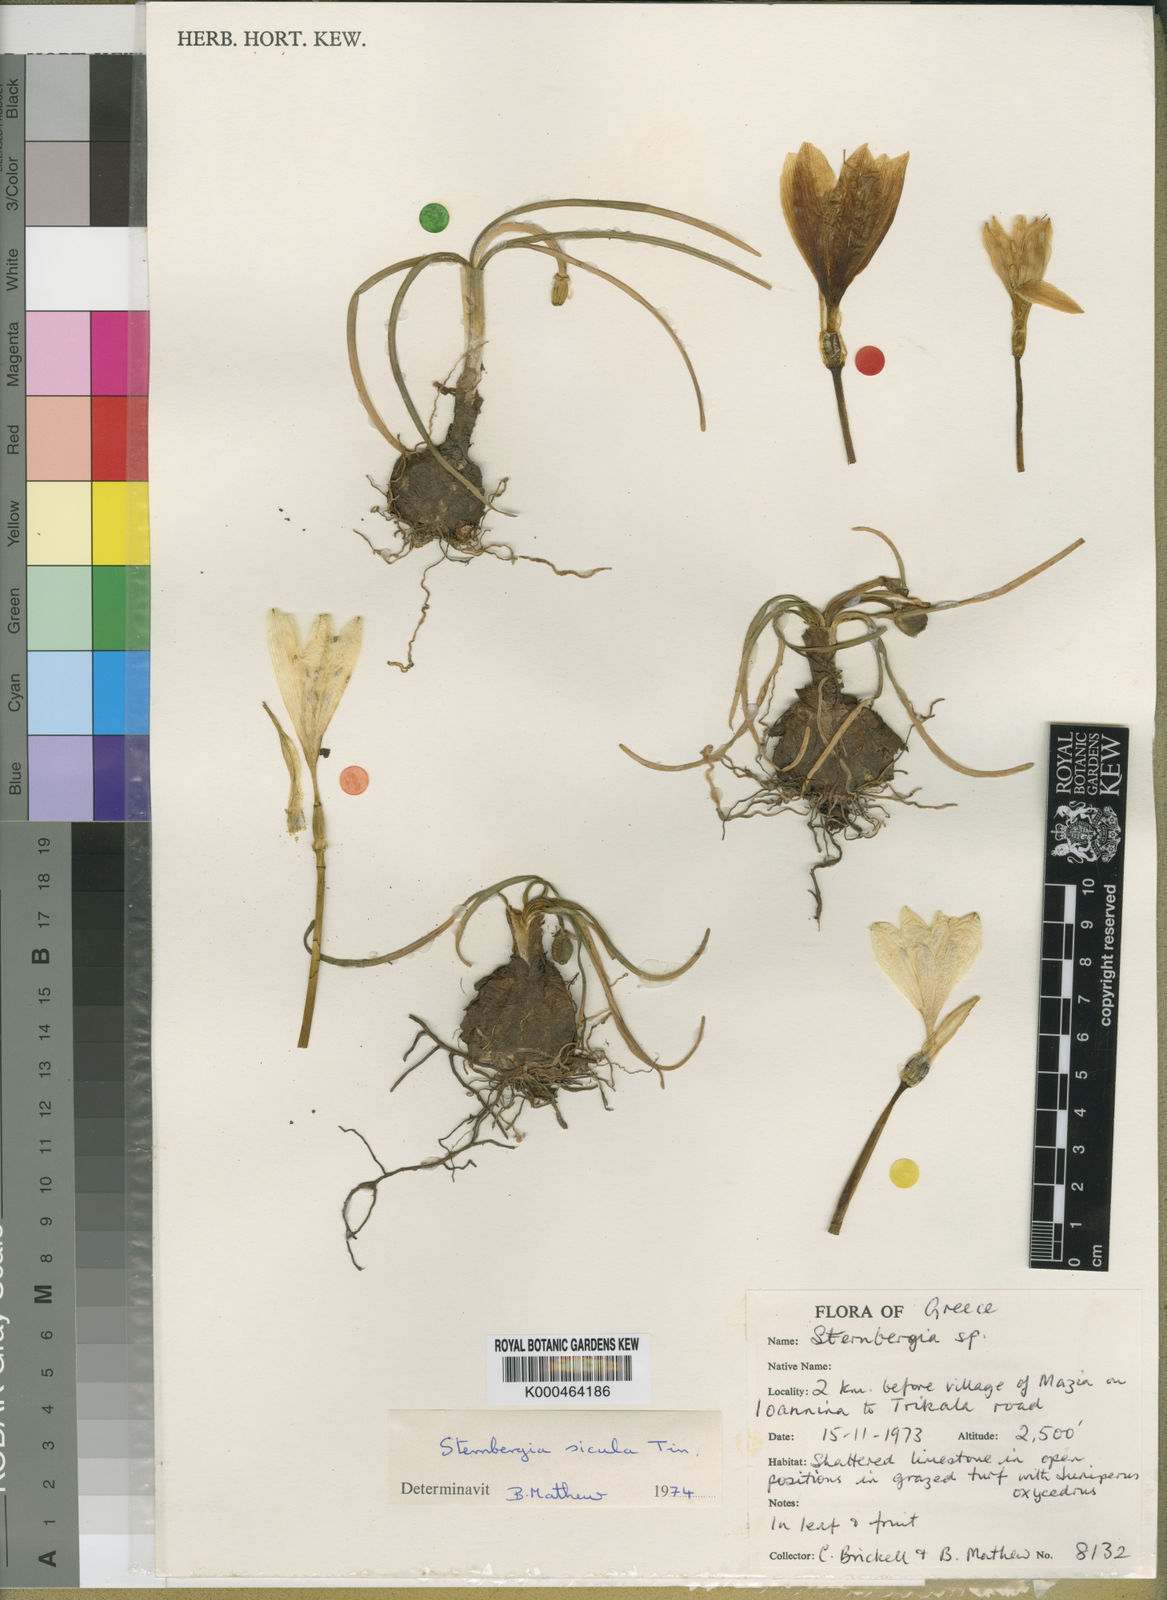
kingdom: Plantae
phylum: Tracheophyta
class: Liliopsida
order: Asparagales
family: Amaryllidaceae
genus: Sternbergia
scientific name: Sternbergia
